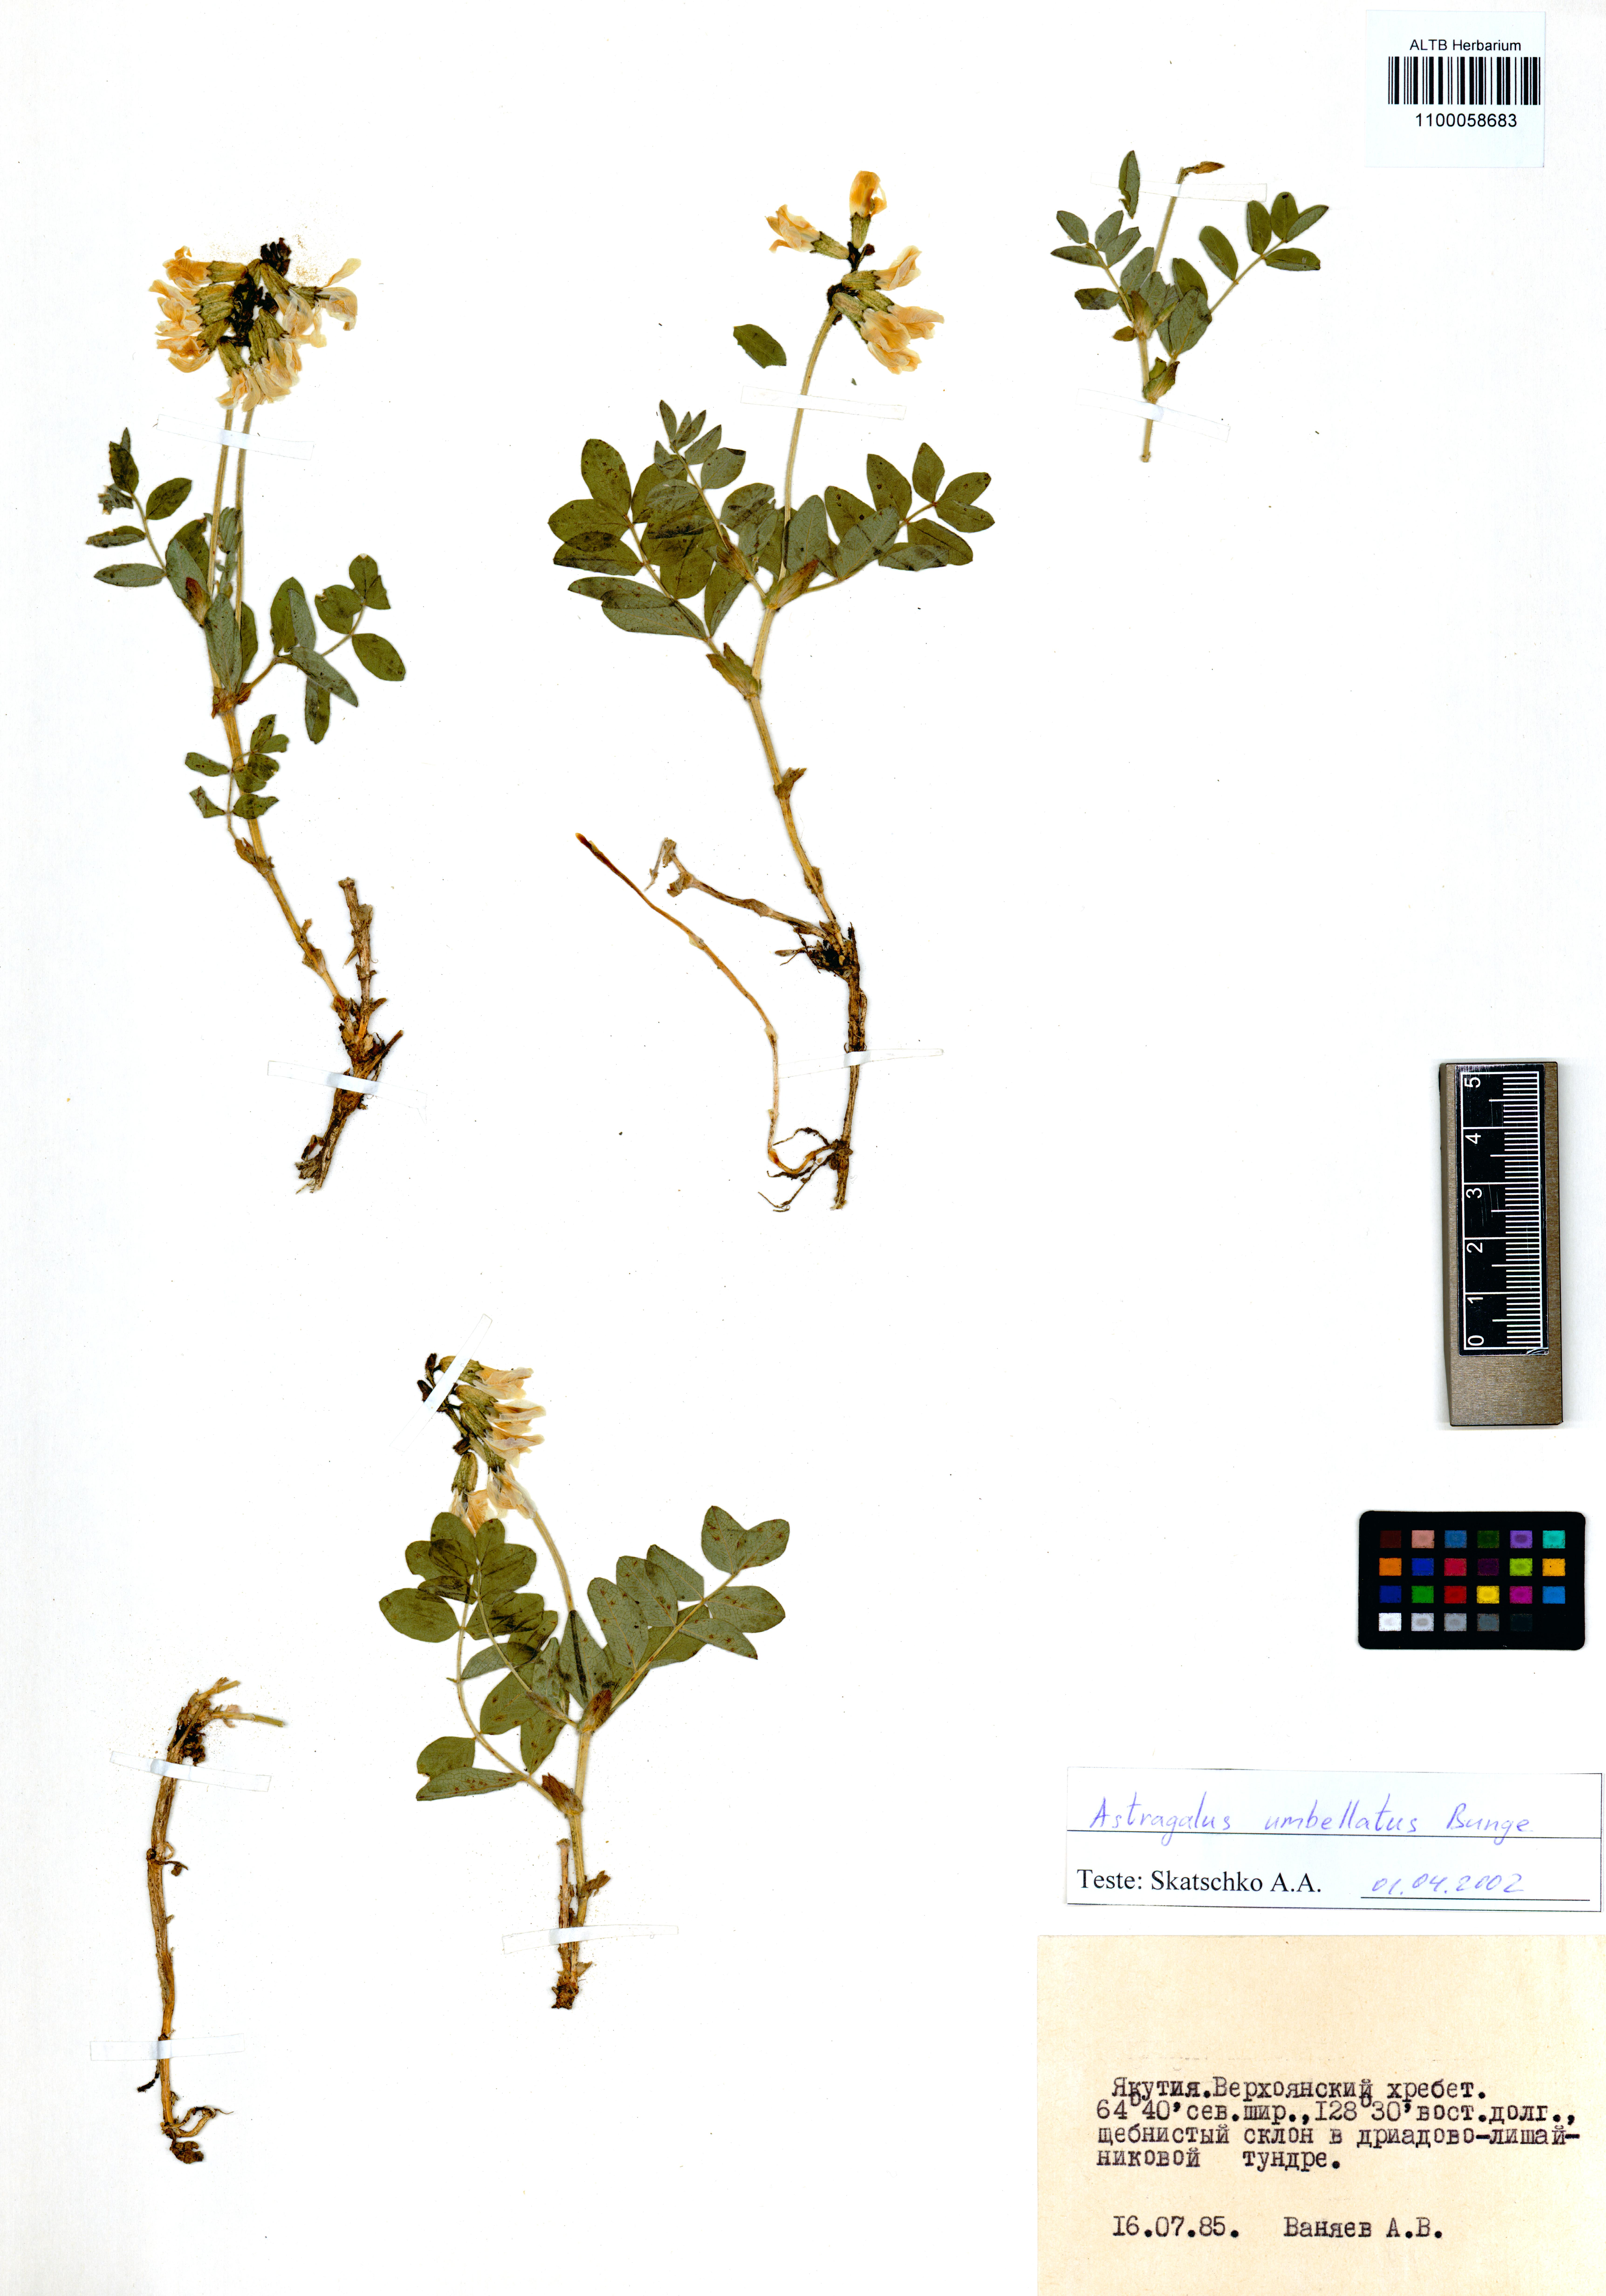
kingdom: Plantae
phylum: Tracheophyta
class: Magnoliopsida
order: Fabales
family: Fabaceae
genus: Astragalus
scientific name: Astragalus umbellatus
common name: Tundra milk-vetch
